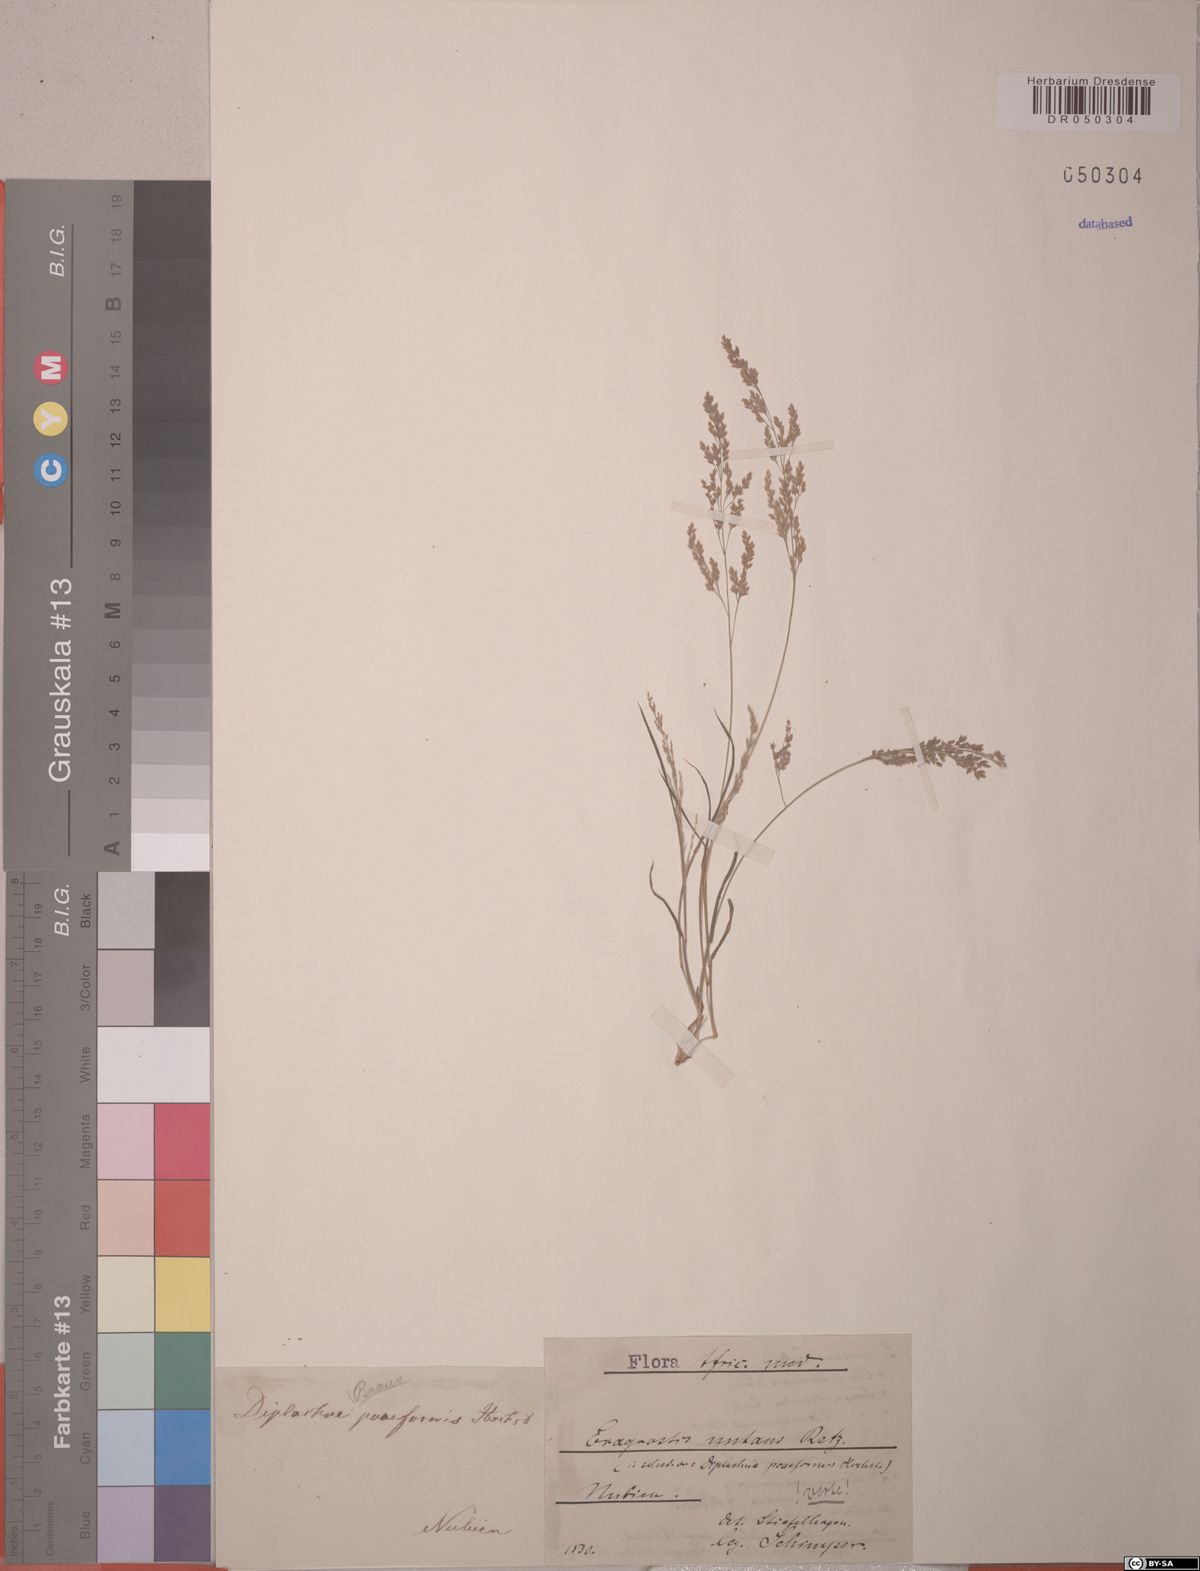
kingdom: Plantae
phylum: Tracheophyta
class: Liliopsida
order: Poales
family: Poaceae
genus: Eragrostis
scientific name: Eragrostis nutans
